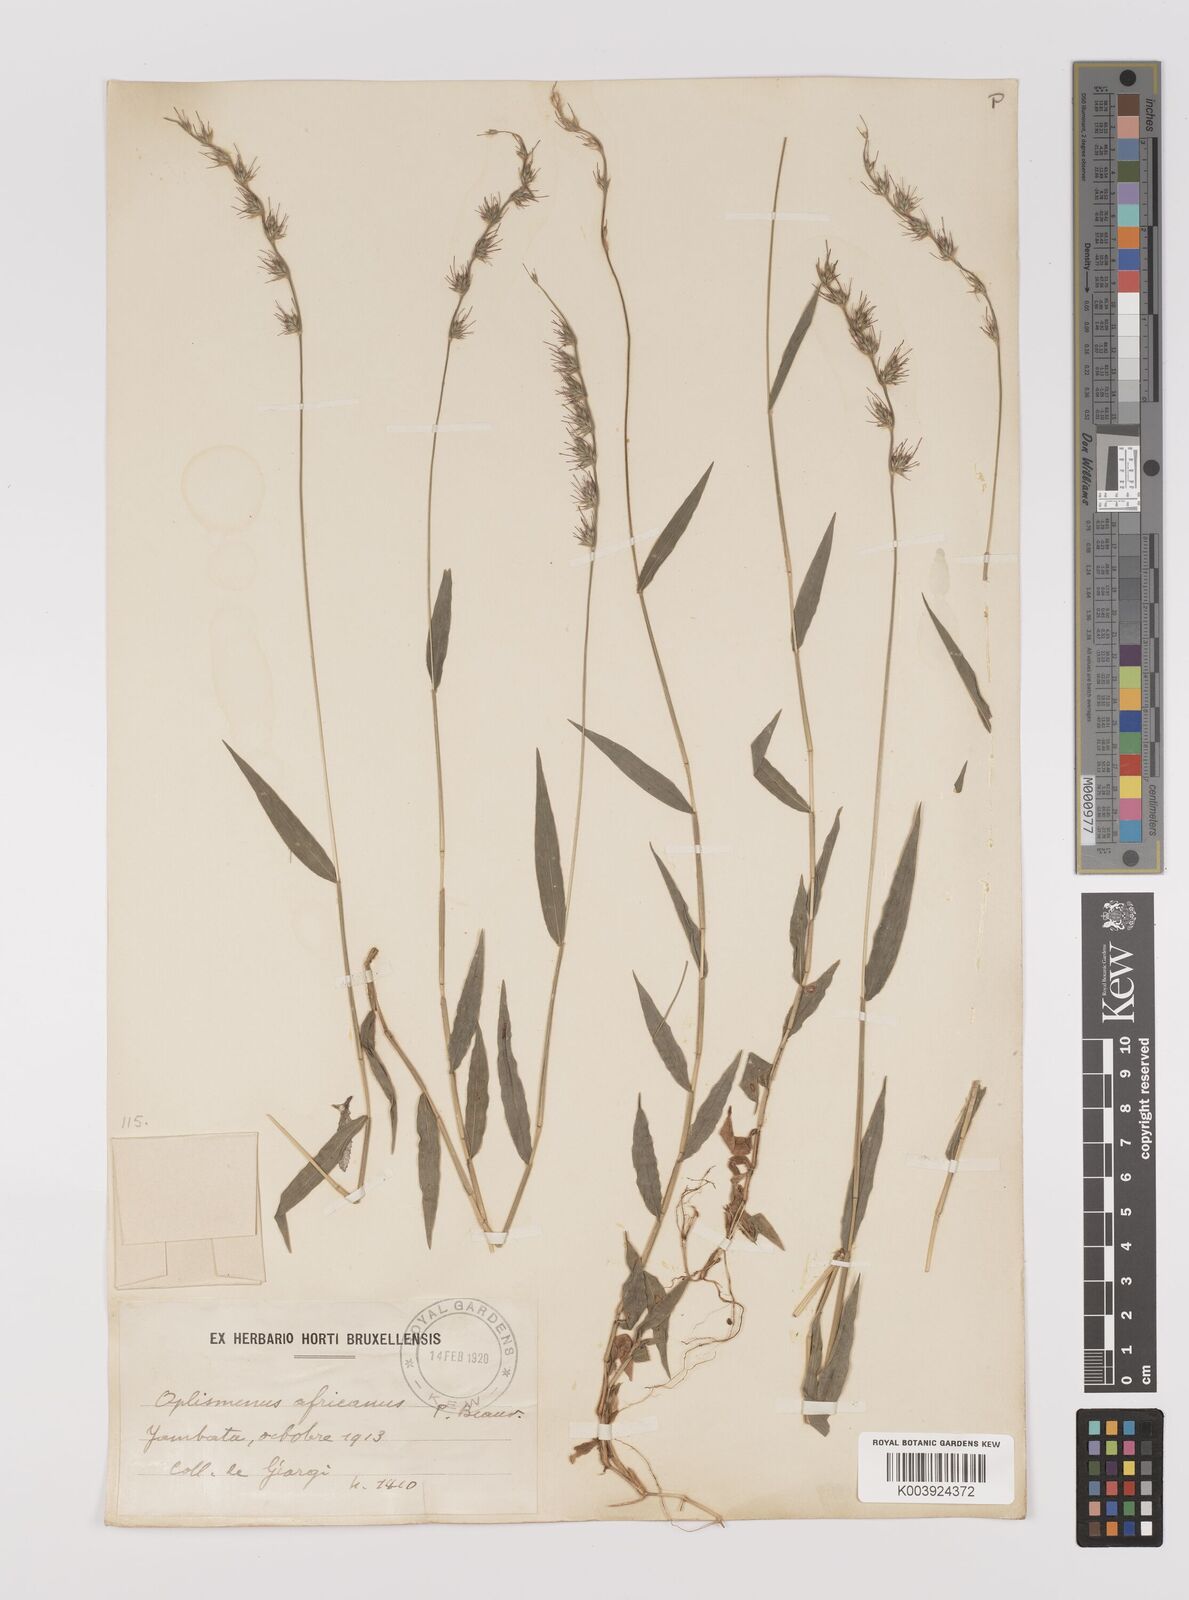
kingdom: Plantae
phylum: Tracheophyta
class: Liliopsida
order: Poales
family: Poaceae
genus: Oplismenus
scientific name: Oplismenus hirtellus
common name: Basketgrass
